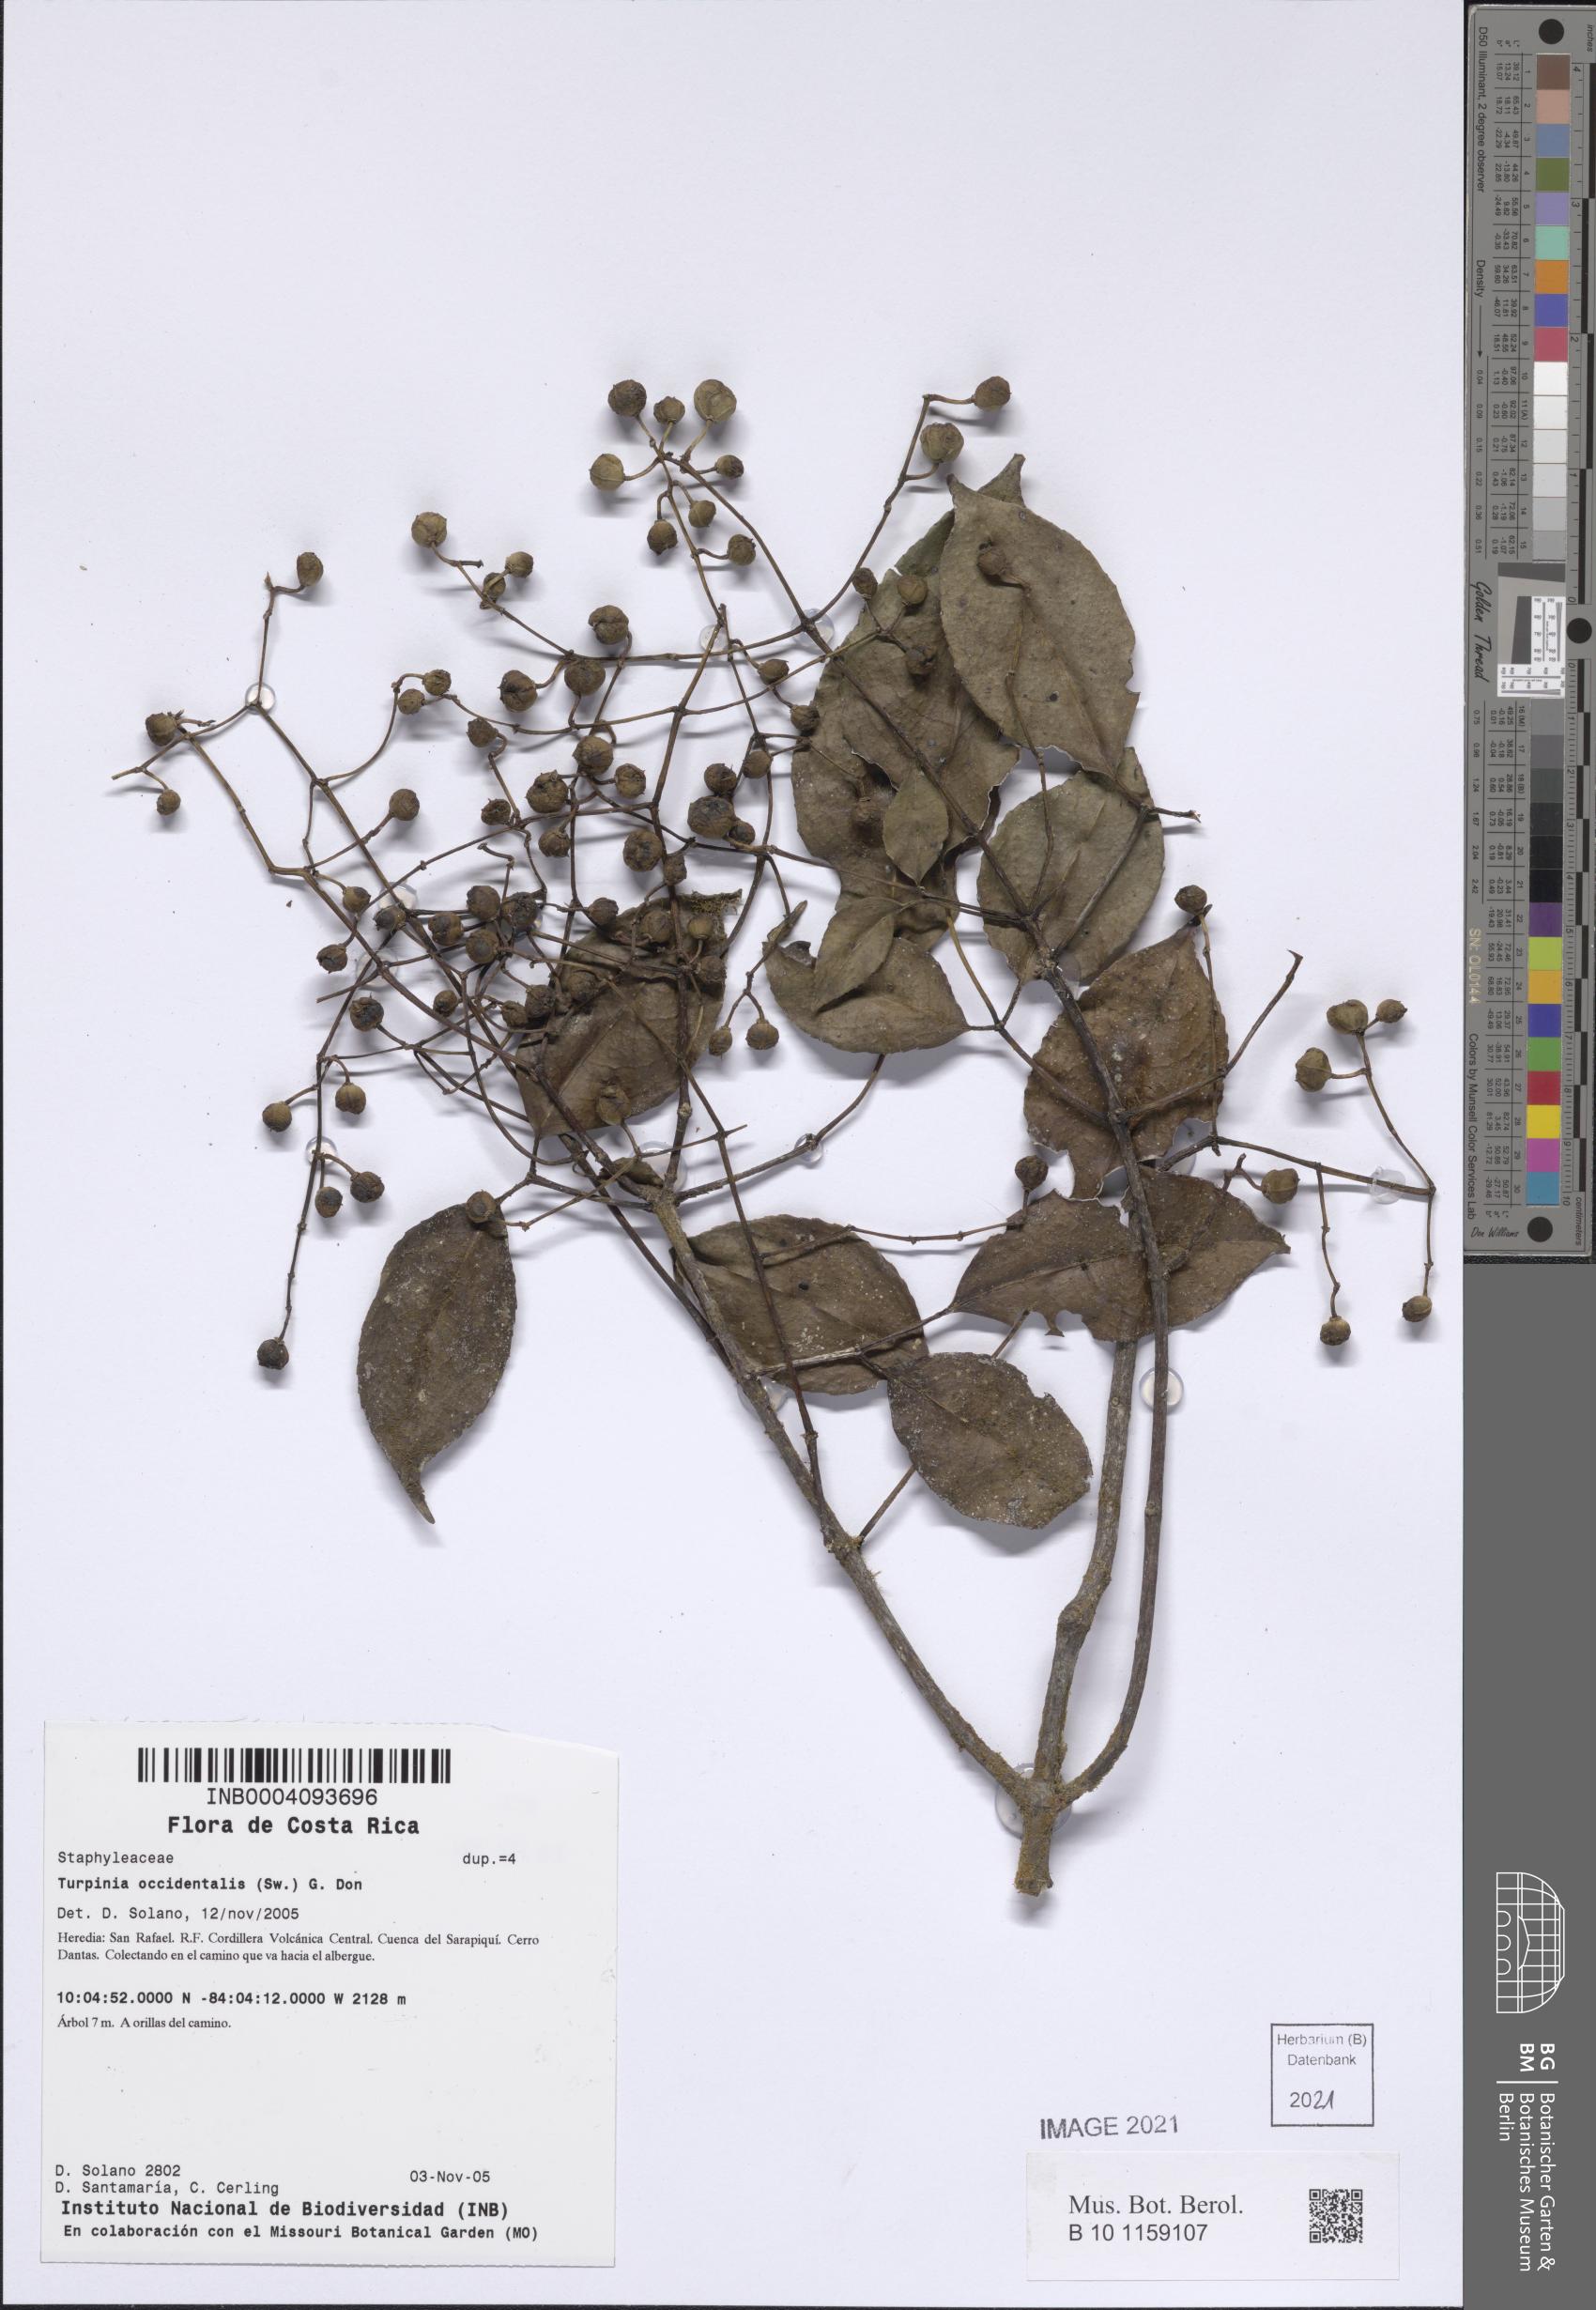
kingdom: Plantae
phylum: Tracheophyta
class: Magnoliopsida
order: Crossosomatales
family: Staphyleaceae
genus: Turpinia
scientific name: Turpinia occidentalis
